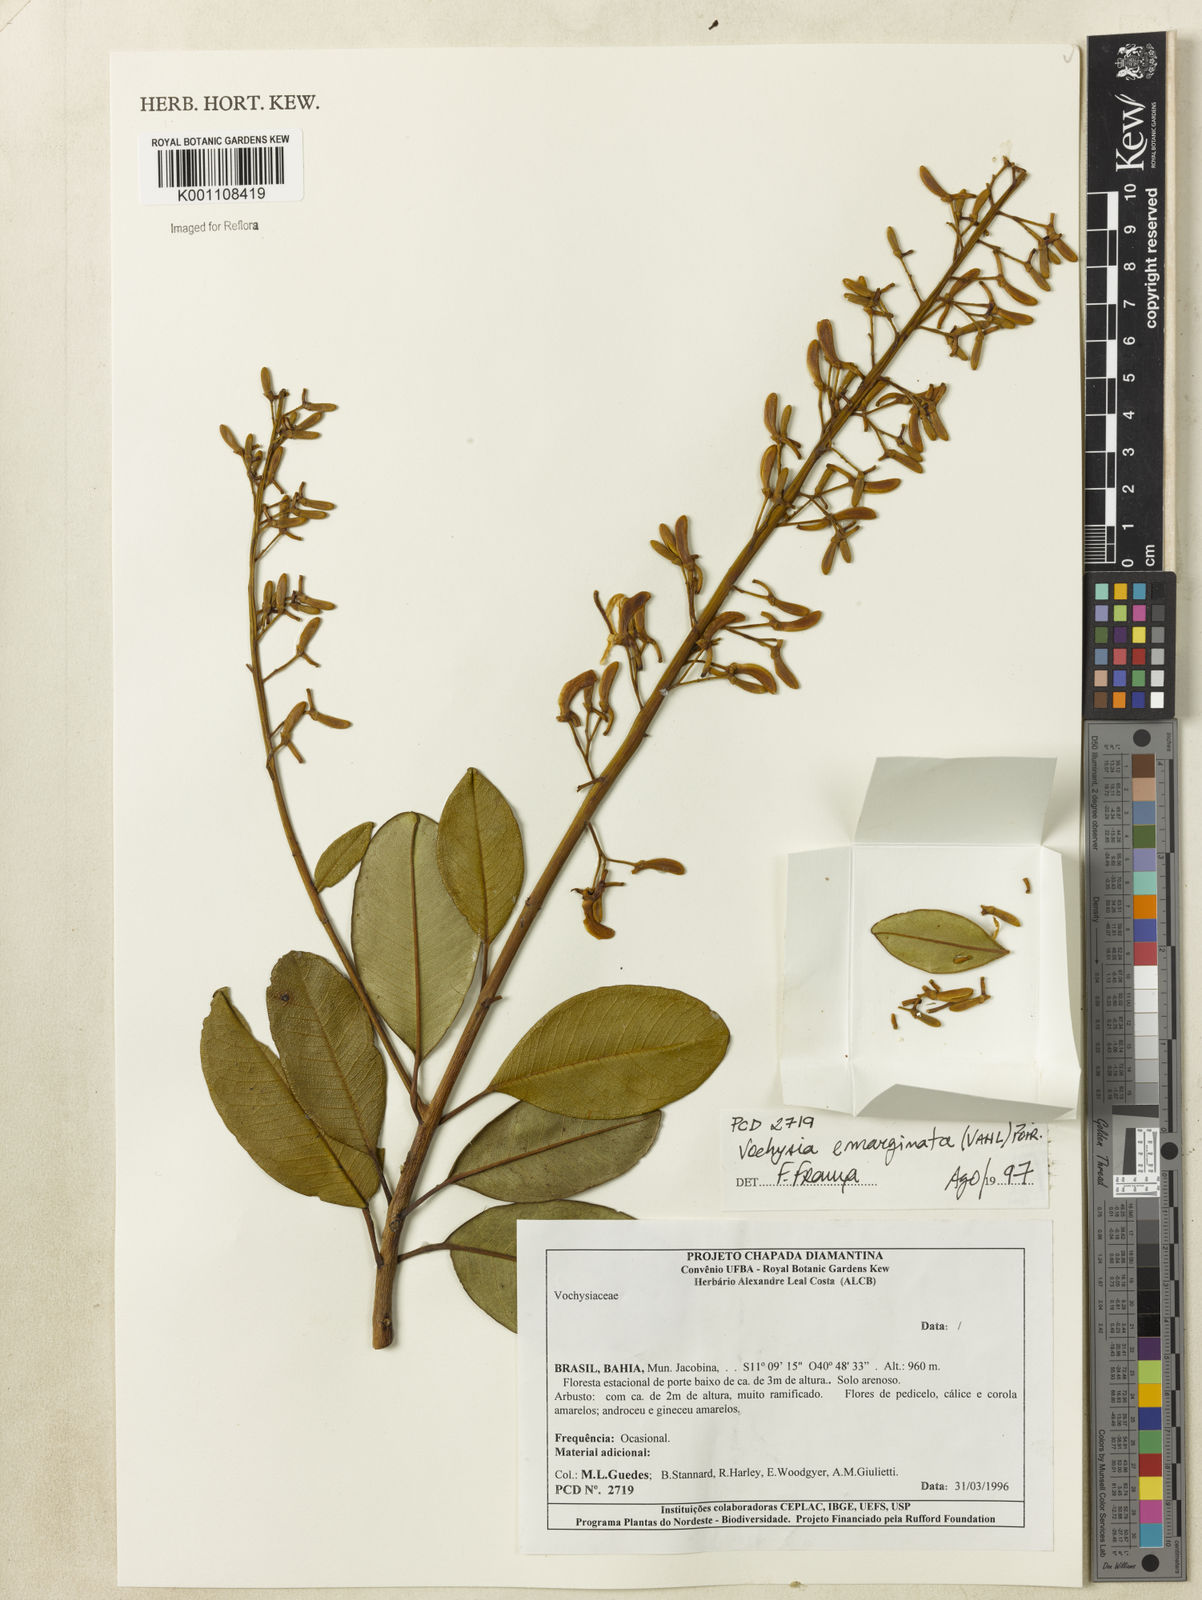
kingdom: Plantae
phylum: Tracheophyta
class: Magnoliopsida
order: Myrtales
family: Vochysiaceae
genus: Vochysia
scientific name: Vochysia
